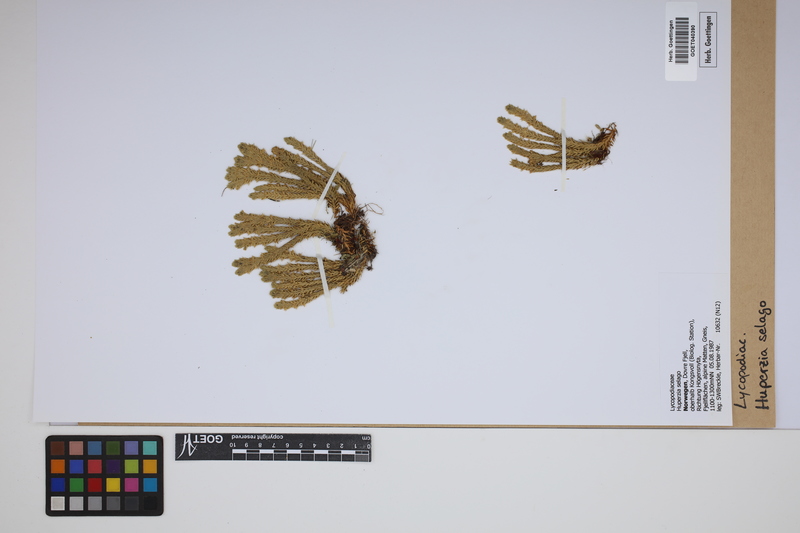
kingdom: Plantae
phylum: Tracheophyta
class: Lycopodiopsida
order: Lycopodiales
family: Lycopodiaceae
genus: Huperzia
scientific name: Huperzia selago
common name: Northern firmoss
